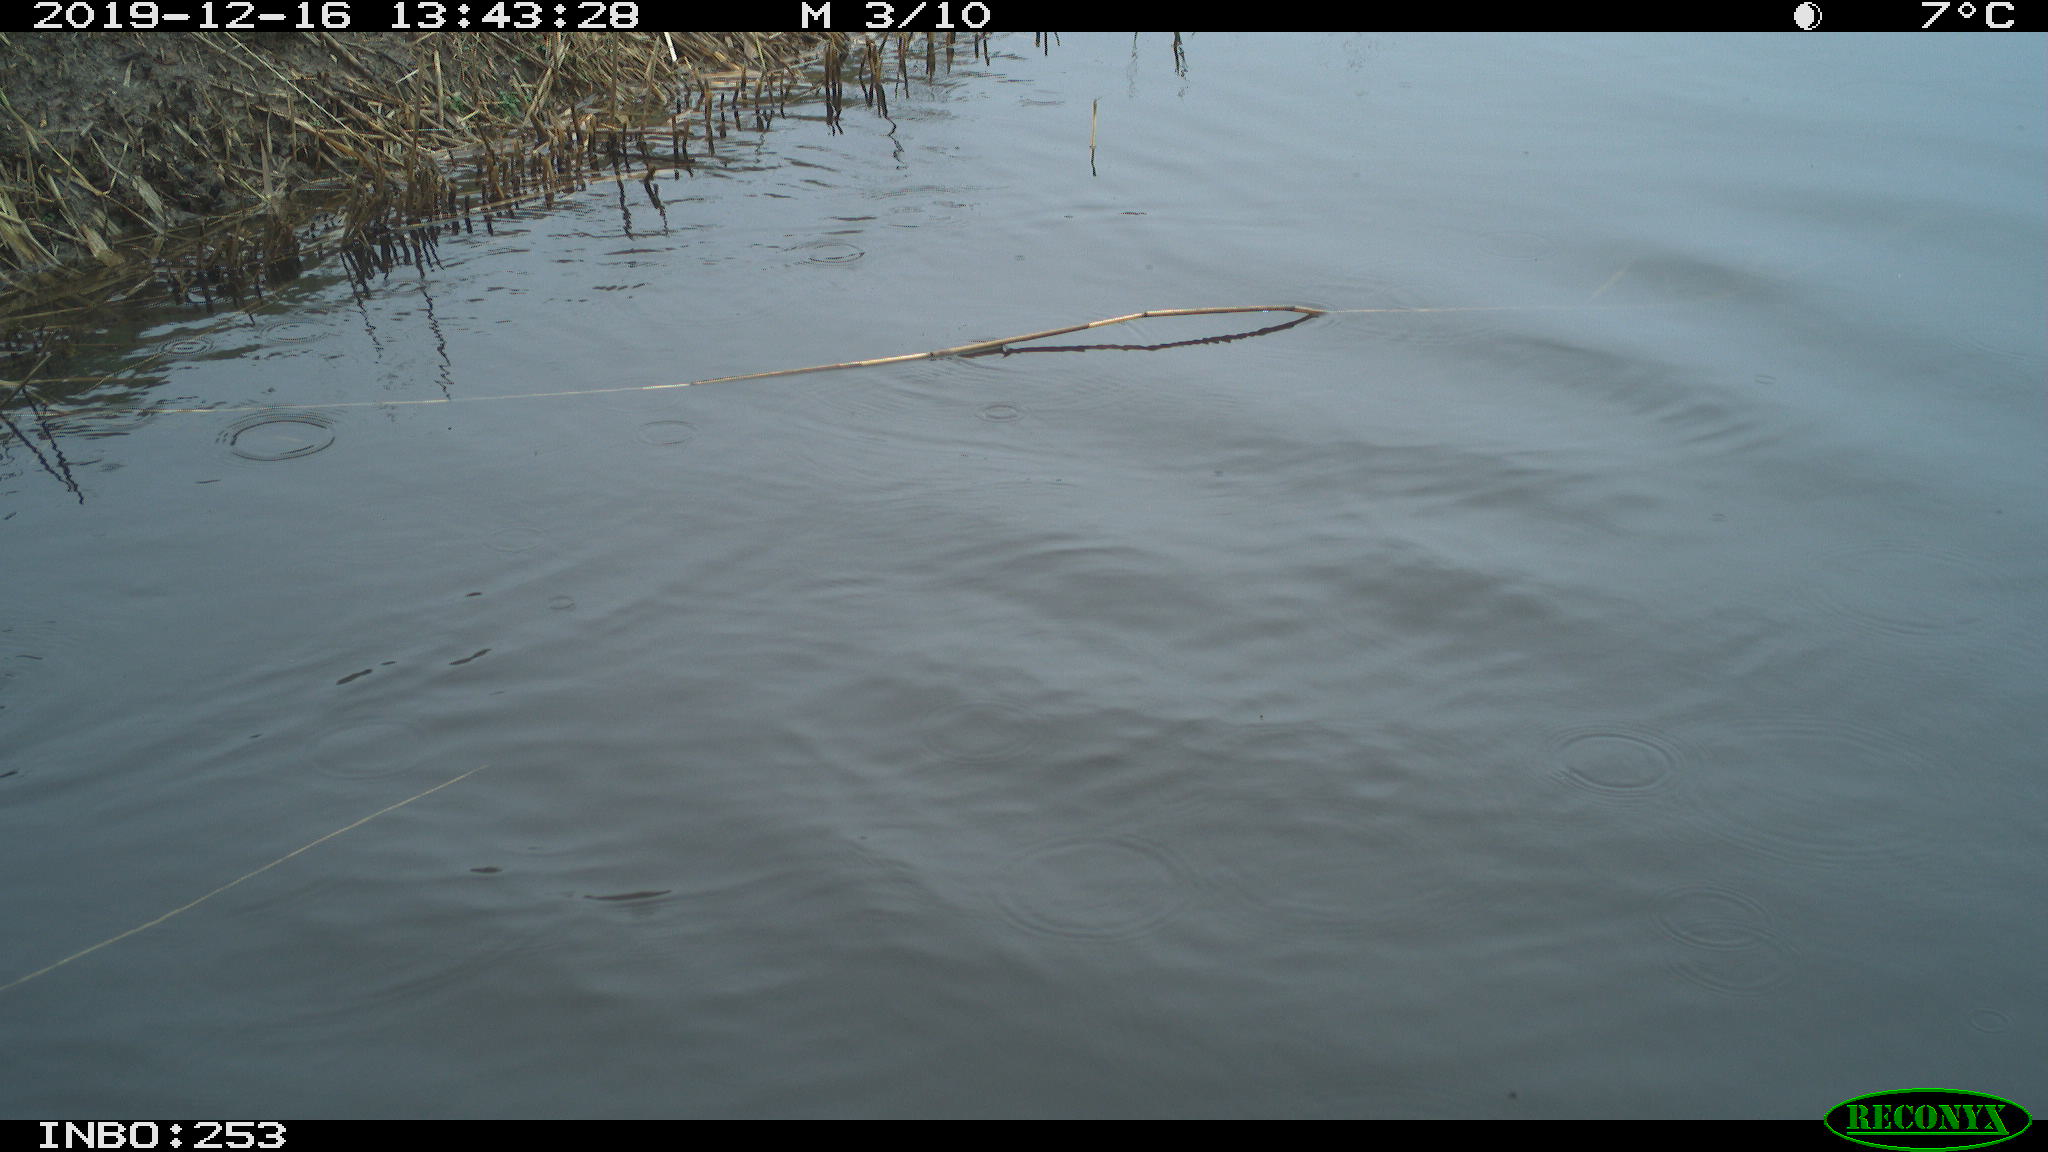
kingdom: Animalia
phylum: Chordata
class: Aves
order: Gruiformes
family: Rallidae
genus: Gallinula
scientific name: Gallinula chloropus
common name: Common moorhen
